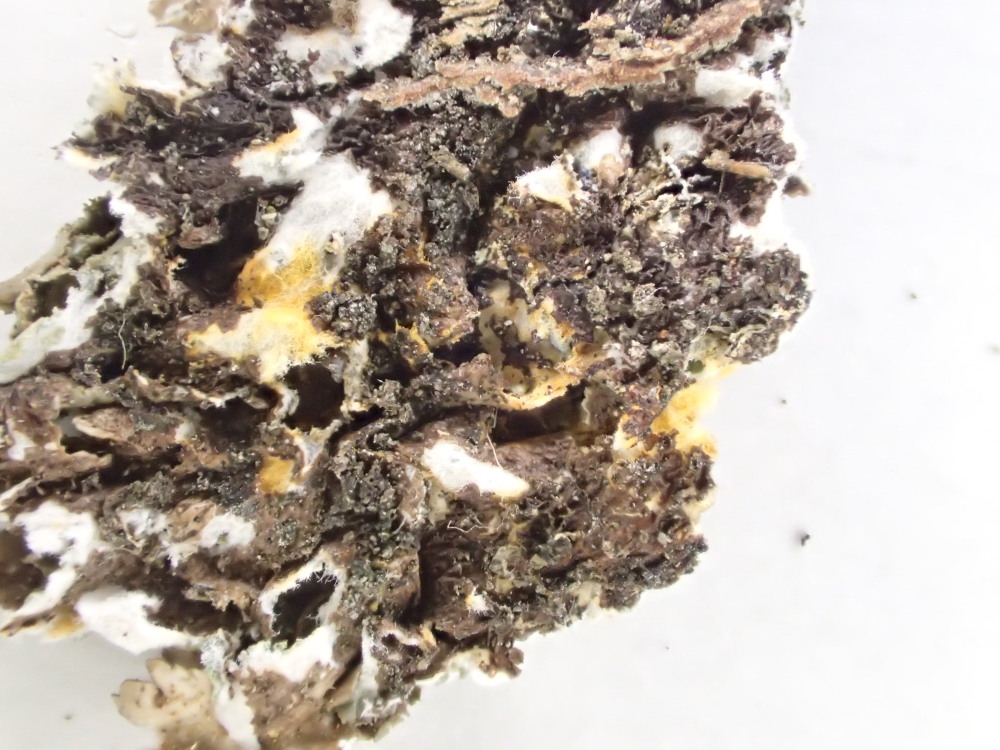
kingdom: Fungi
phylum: Ascomycota
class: Lecanoromycetes
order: Lecanorales
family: Parmeliaceae
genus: Melanelixia
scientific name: Melanelixia glabratula
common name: glinsende skållav
